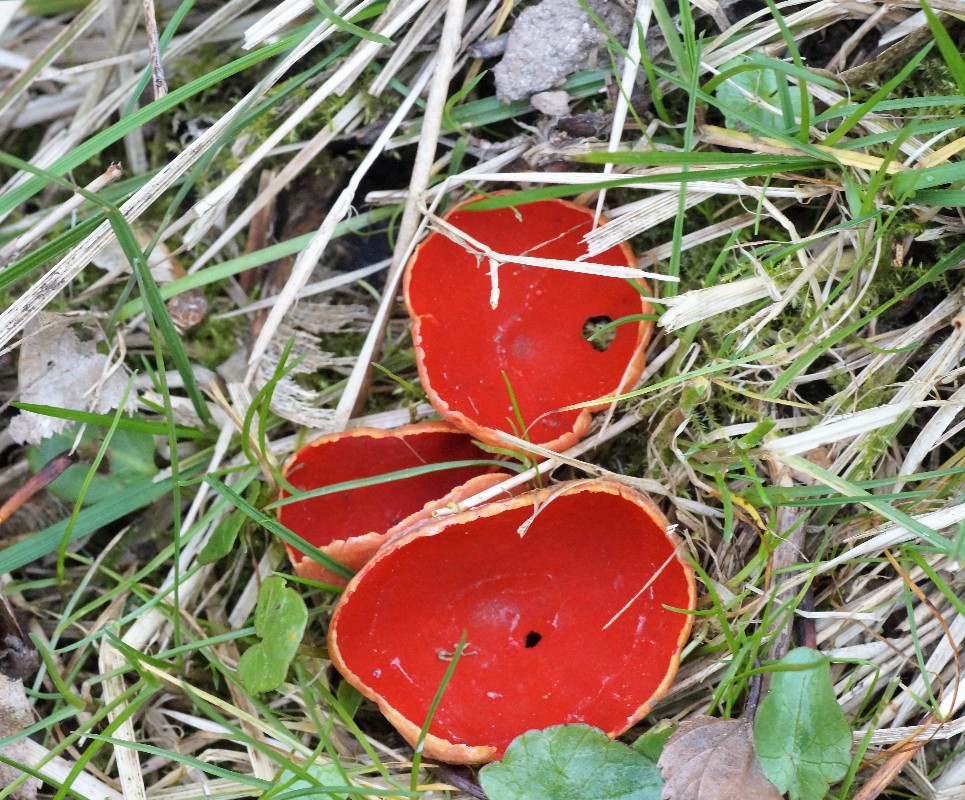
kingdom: Fungi
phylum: Ascomycota
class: Pezizomycetes
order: Pezizales
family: Sarcoscyphaceae
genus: Sarcoscypha
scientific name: Sarcoscypha austriaca
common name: krølhåret pragtbæger
